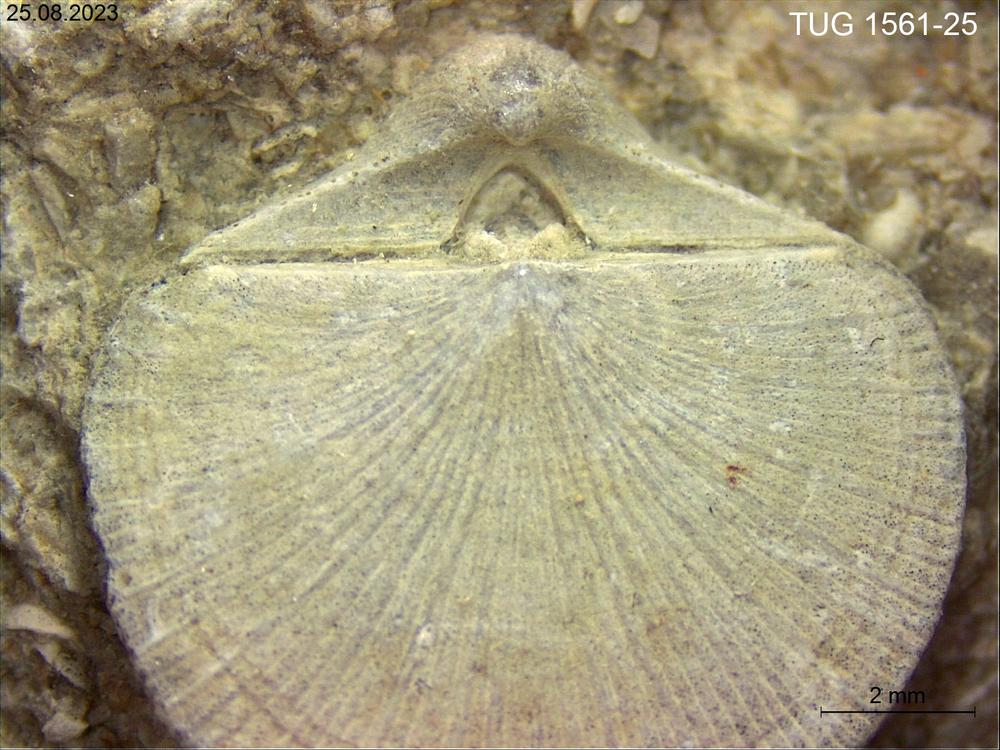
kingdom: Animalia
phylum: Brachiopoda
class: Rhynchonellata
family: Dalmanellidae
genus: Visbyella
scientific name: Visbyella Orthis visbyensis
